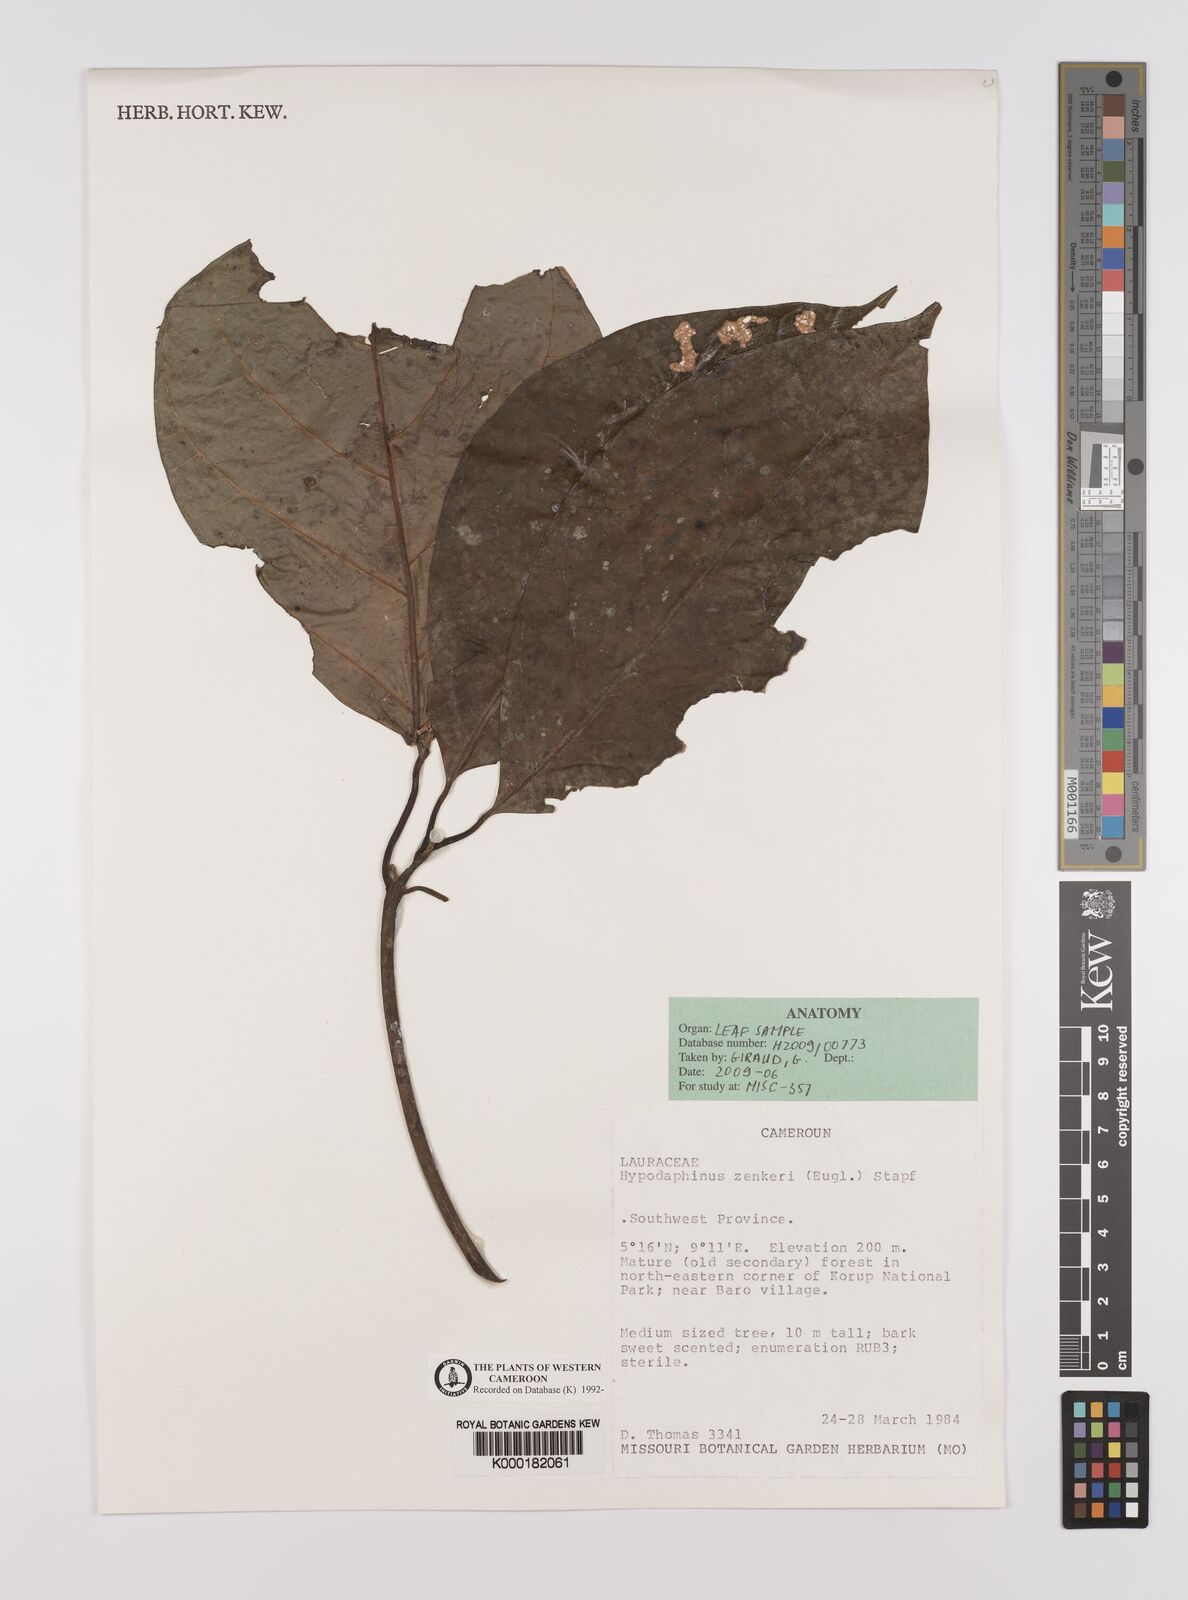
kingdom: Plantae
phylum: Tracheophyta
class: Magnoliopsida
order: Laurales
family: Lauraceae
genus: Hypodaphnis
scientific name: Hypodaphnis zenkeri
